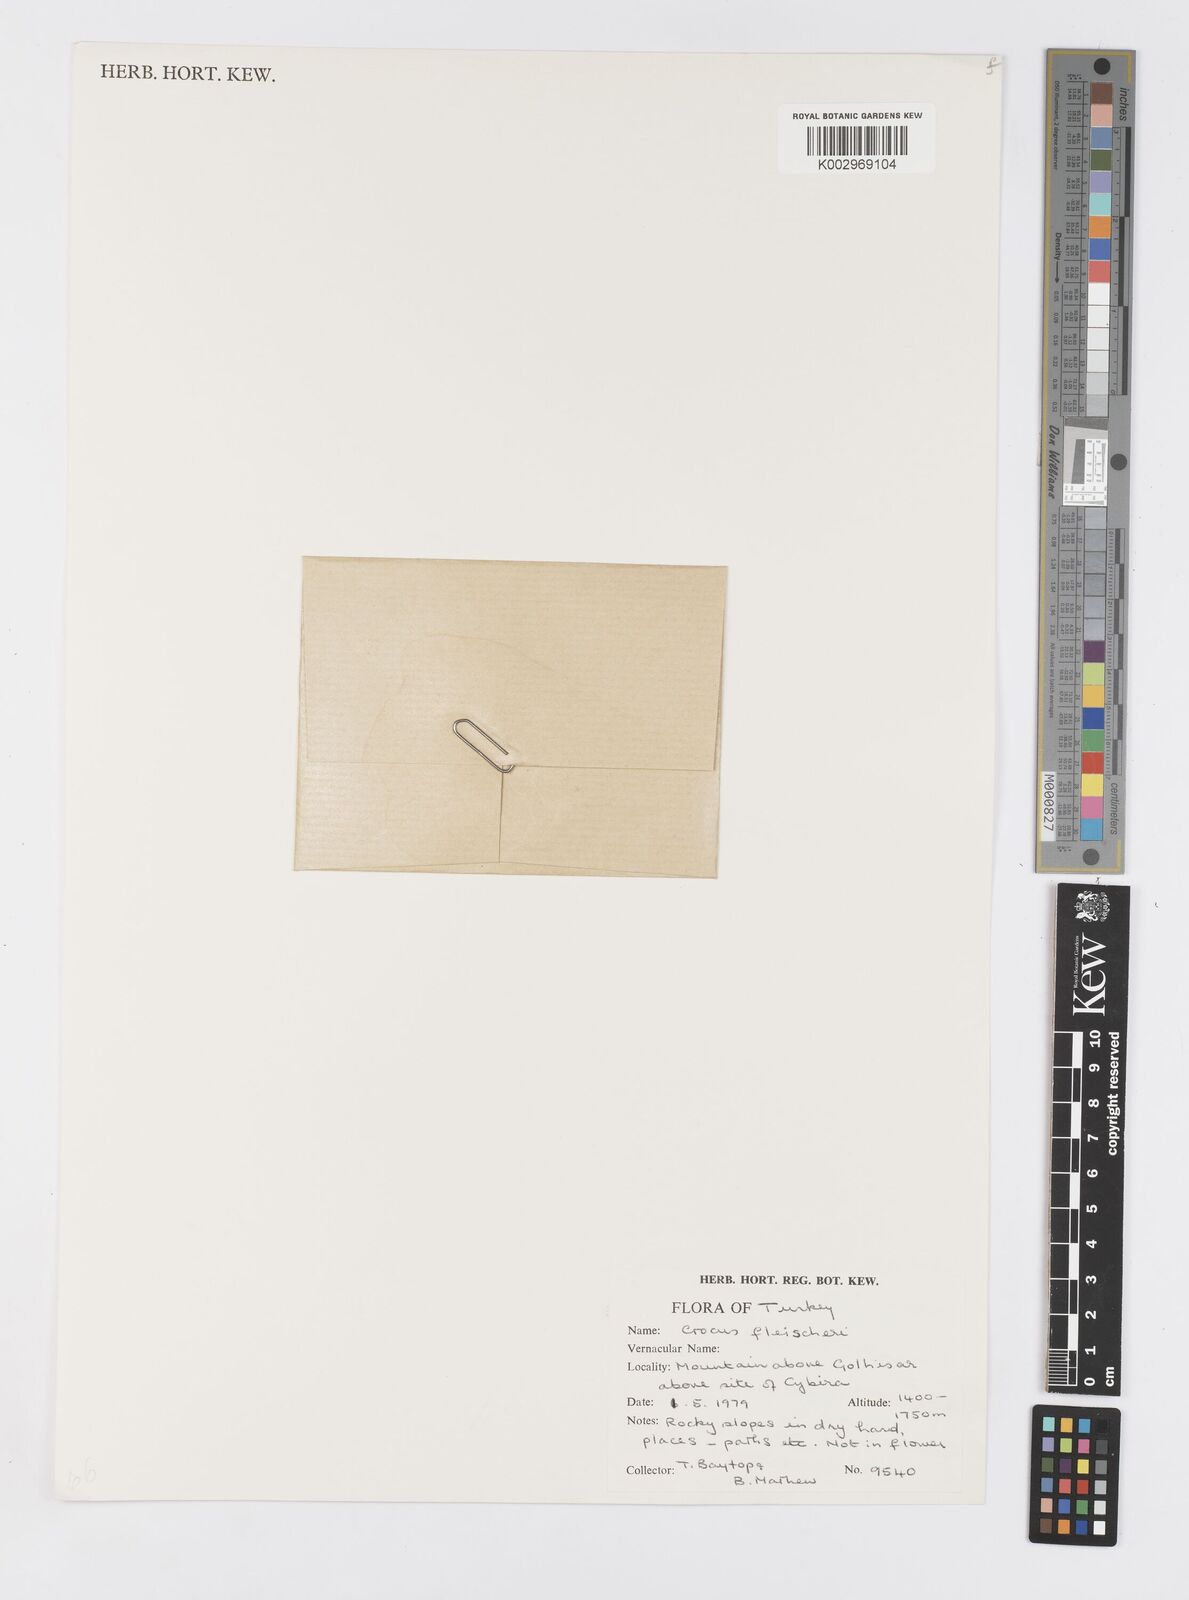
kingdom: Plantae
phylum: Tracheophyta
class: Liliopsida
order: Asparagales
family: Iridaceae
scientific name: Iridaceae
